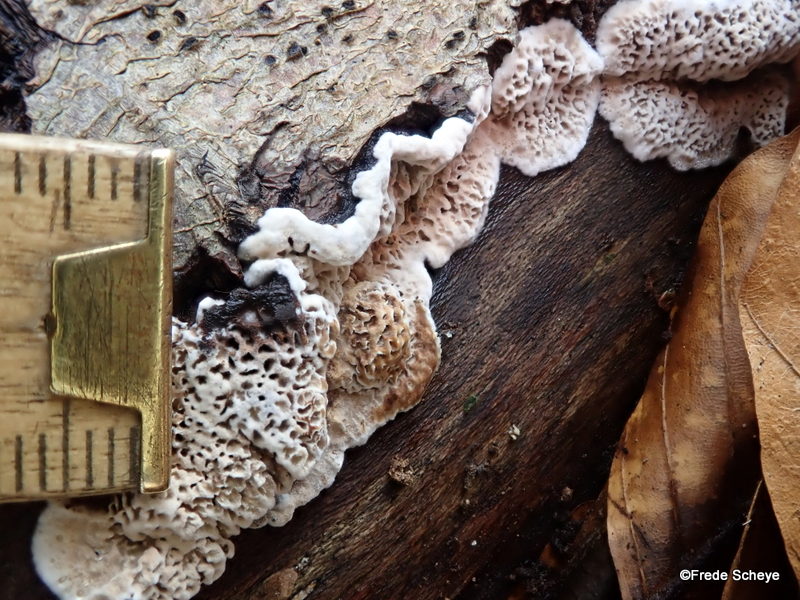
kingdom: Fungi
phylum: Basidiomycota
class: Agaricomycetes
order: Polyporales
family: Polyporaceae
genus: Podofomes
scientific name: Podofomes mollis
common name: blød begporesvamp
